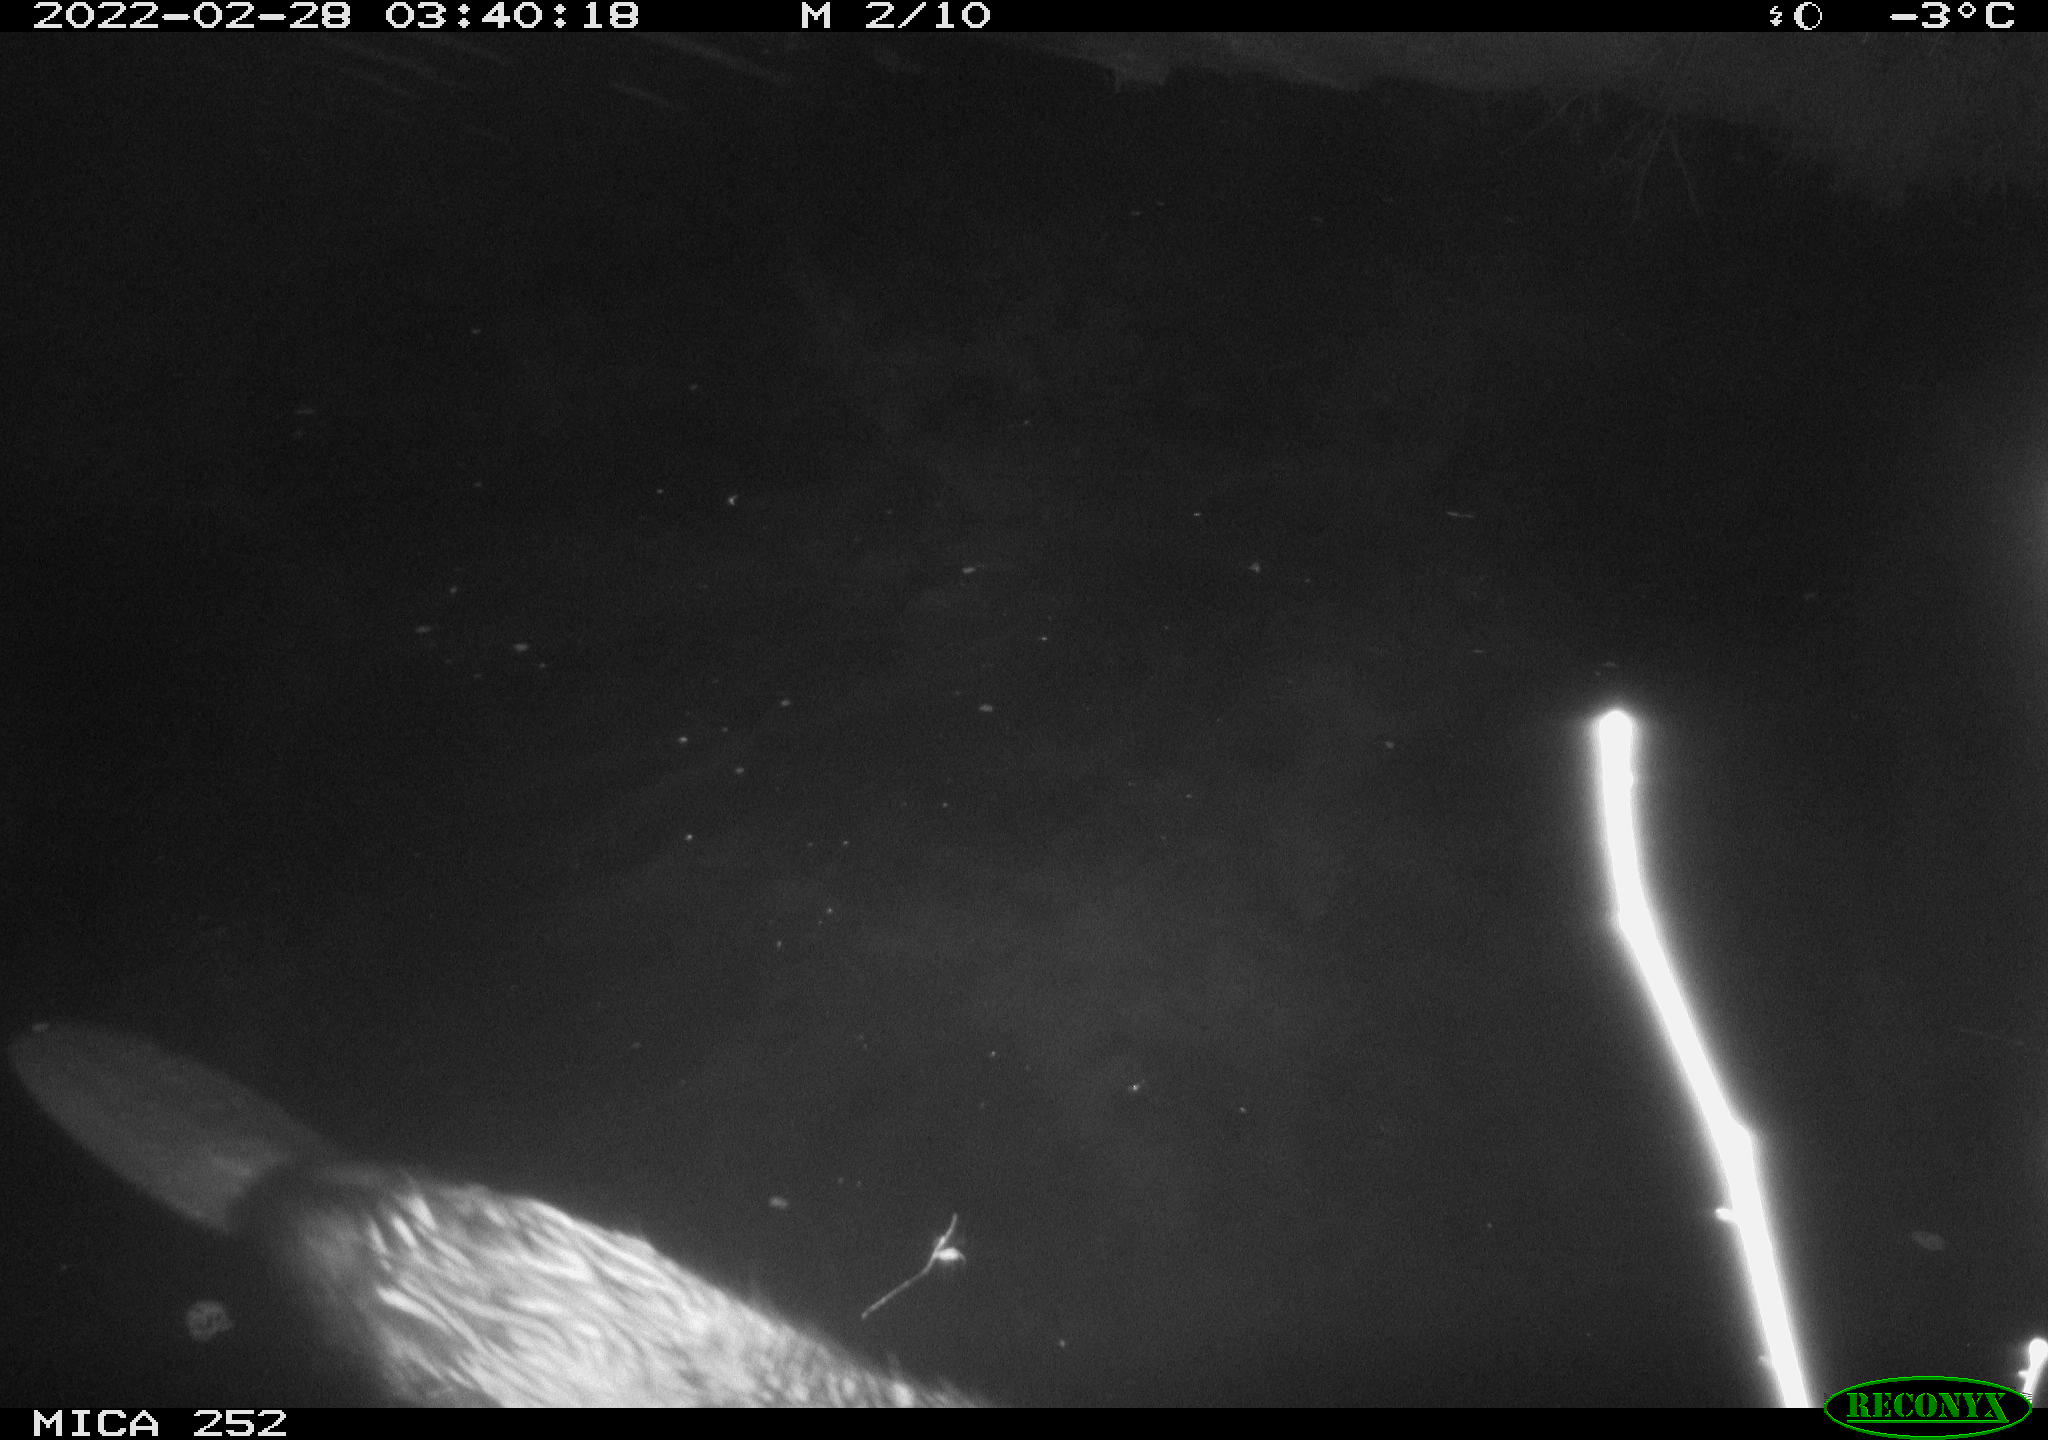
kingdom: Animalia
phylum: Chordata
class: Mammalia
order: Rodentia
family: Castoridae
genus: Castor
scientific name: Castor fiber
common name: Eurasian beaver
